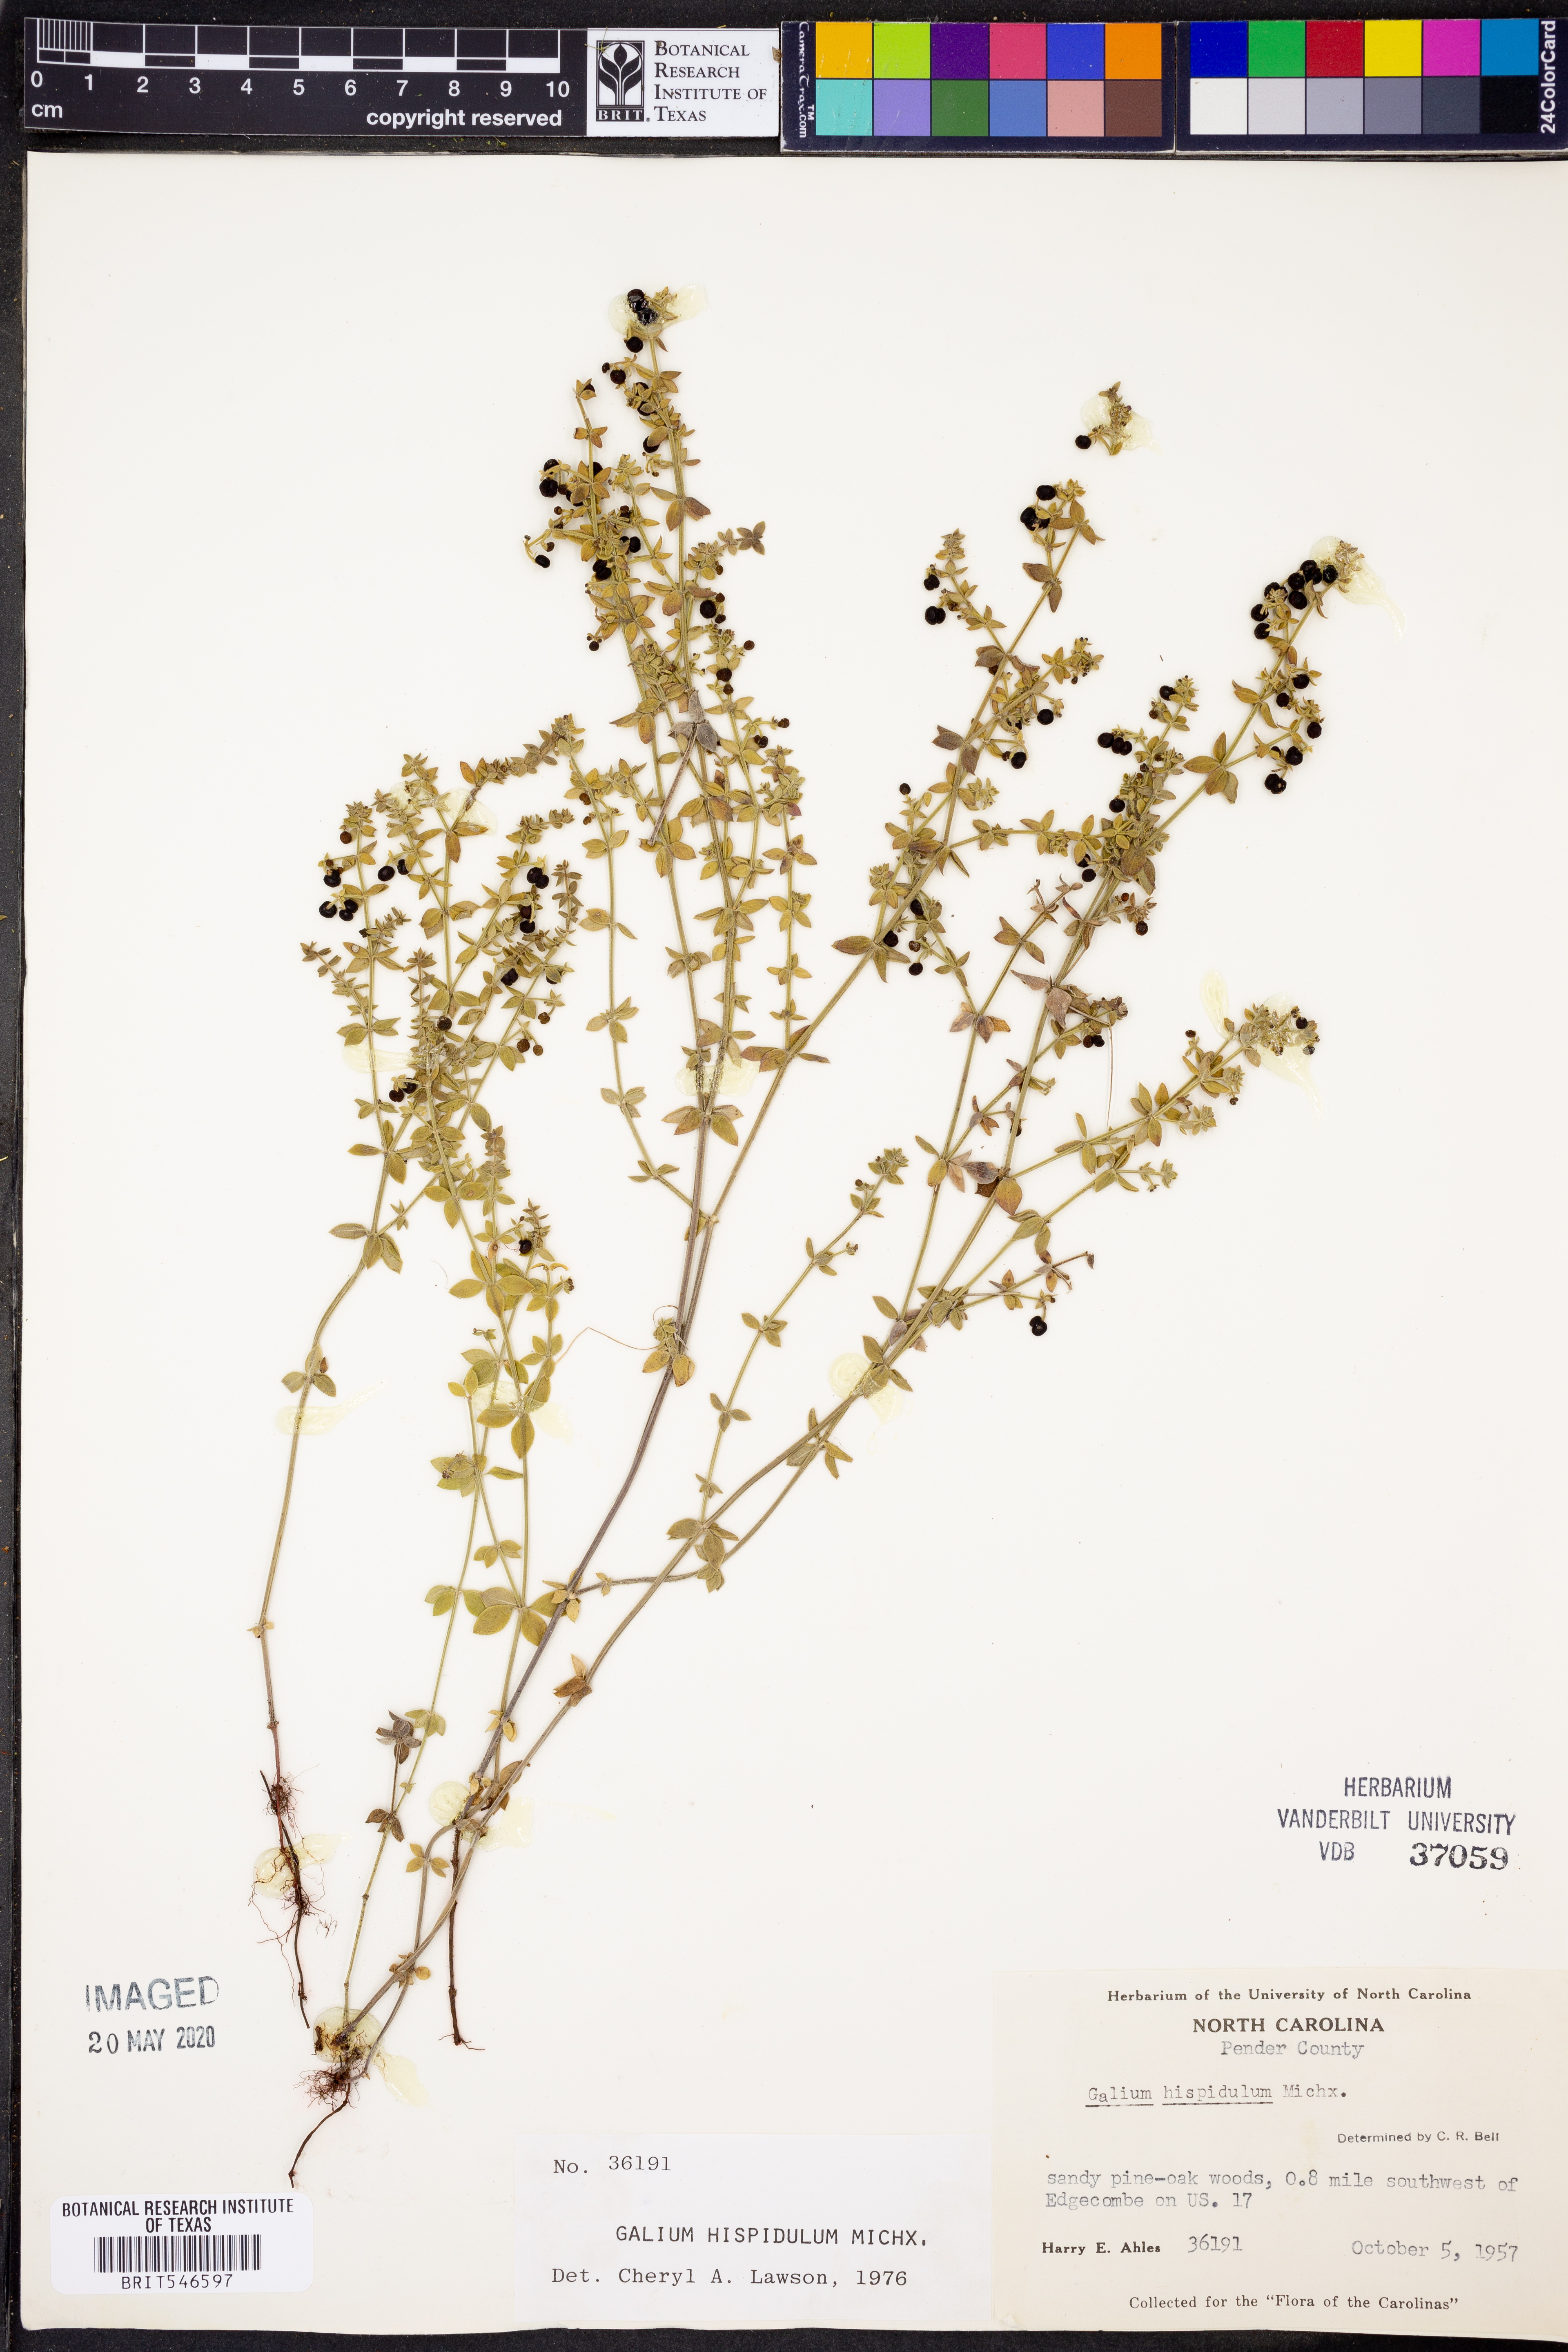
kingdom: Plantae
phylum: Tracheophyta
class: Magnoliopsida
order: Gentianales
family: Rubiaceae
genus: Galium
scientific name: Galium bermudense
